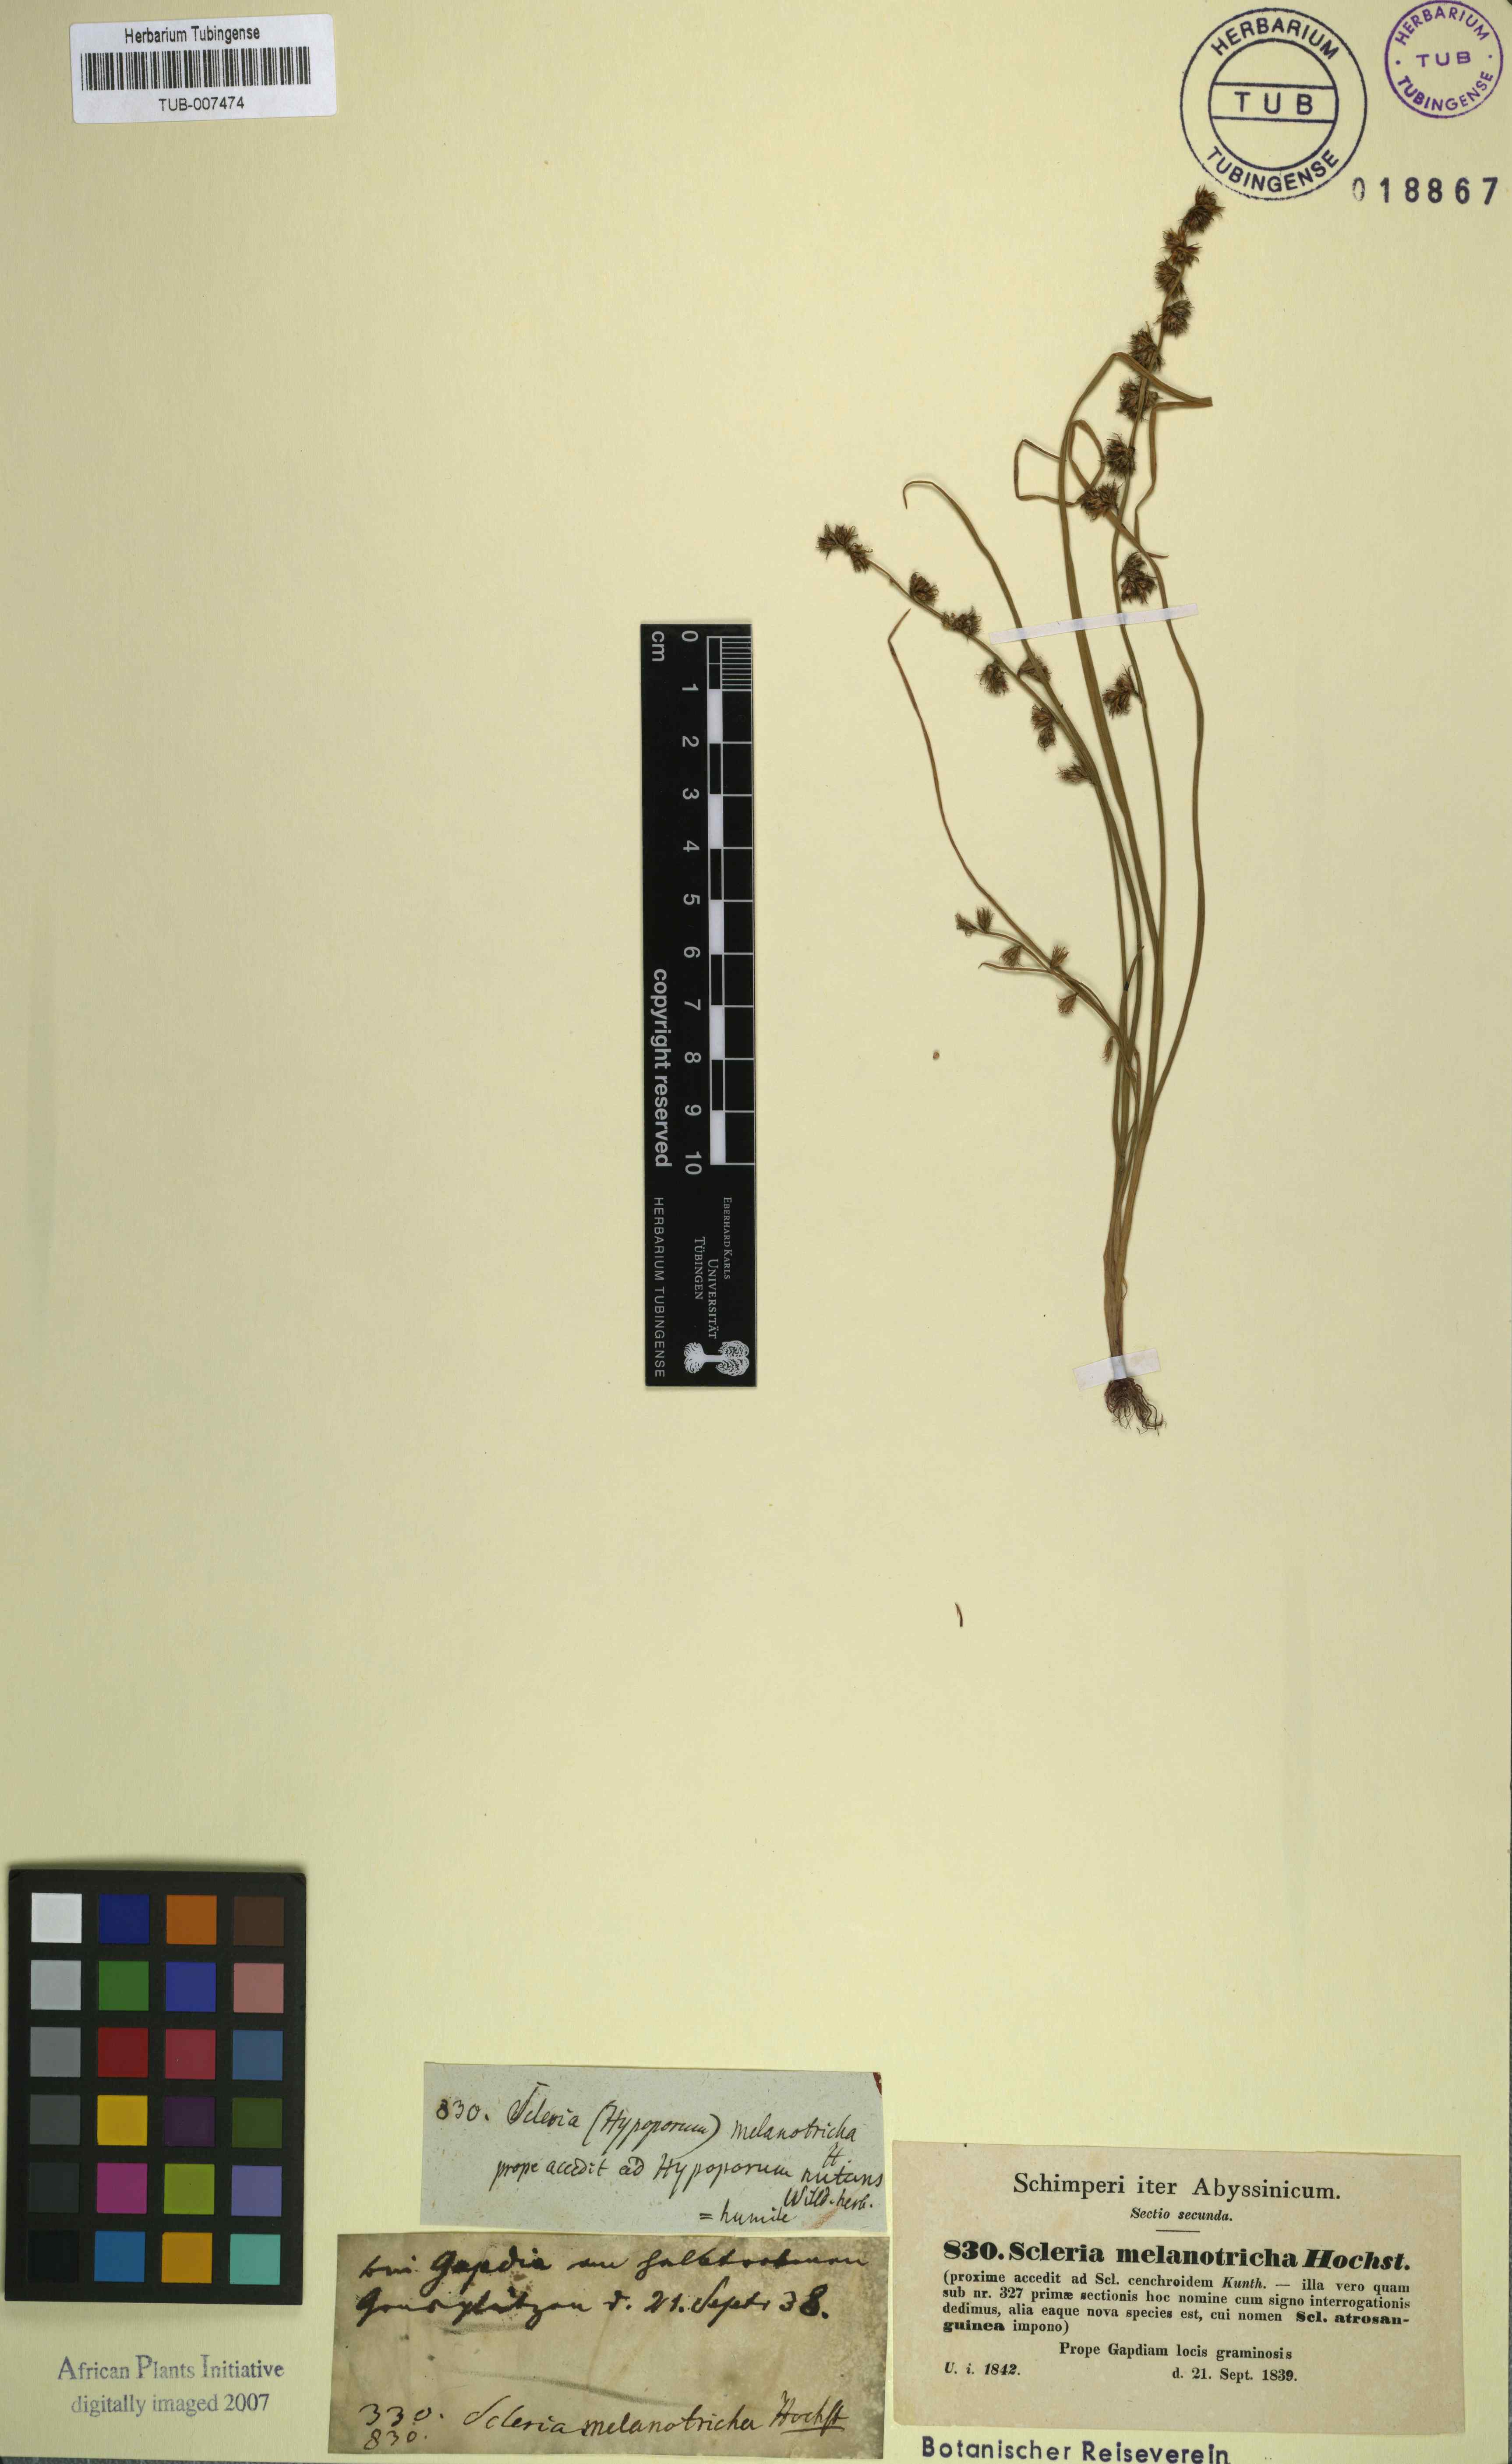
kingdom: Plantae
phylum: Tracheophyta
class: Liliopsida
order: Poales
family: Cyperaceae
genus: Scleria
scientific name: Scleria melanotricha
